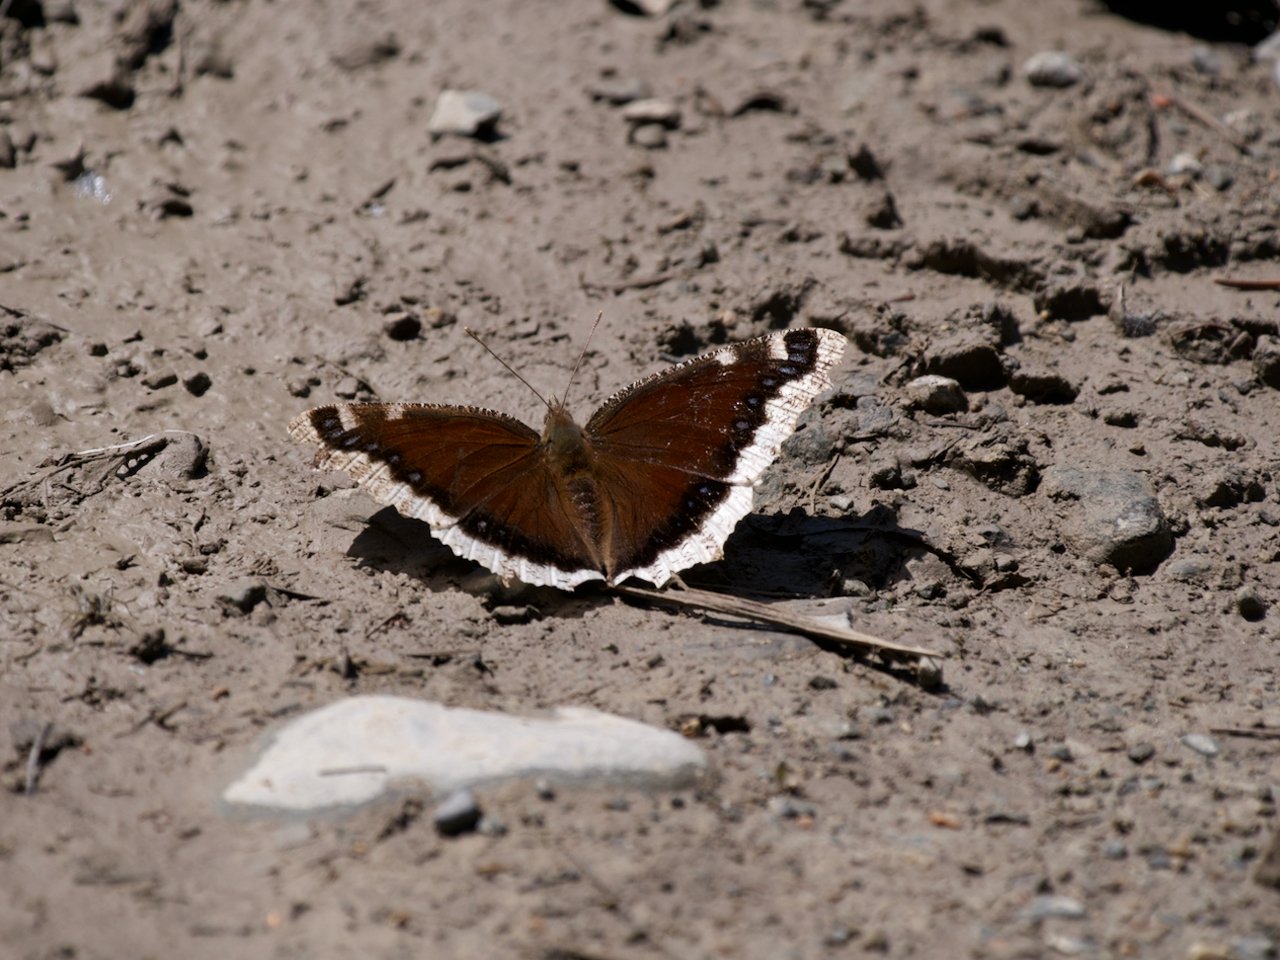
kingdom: Animalia
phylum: Arthropoda
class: Insecta
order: Lepidoptera
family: Nymphalidae
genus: Nymphalis
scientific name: Nymphalis antiopa
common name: Mourning Cloak
